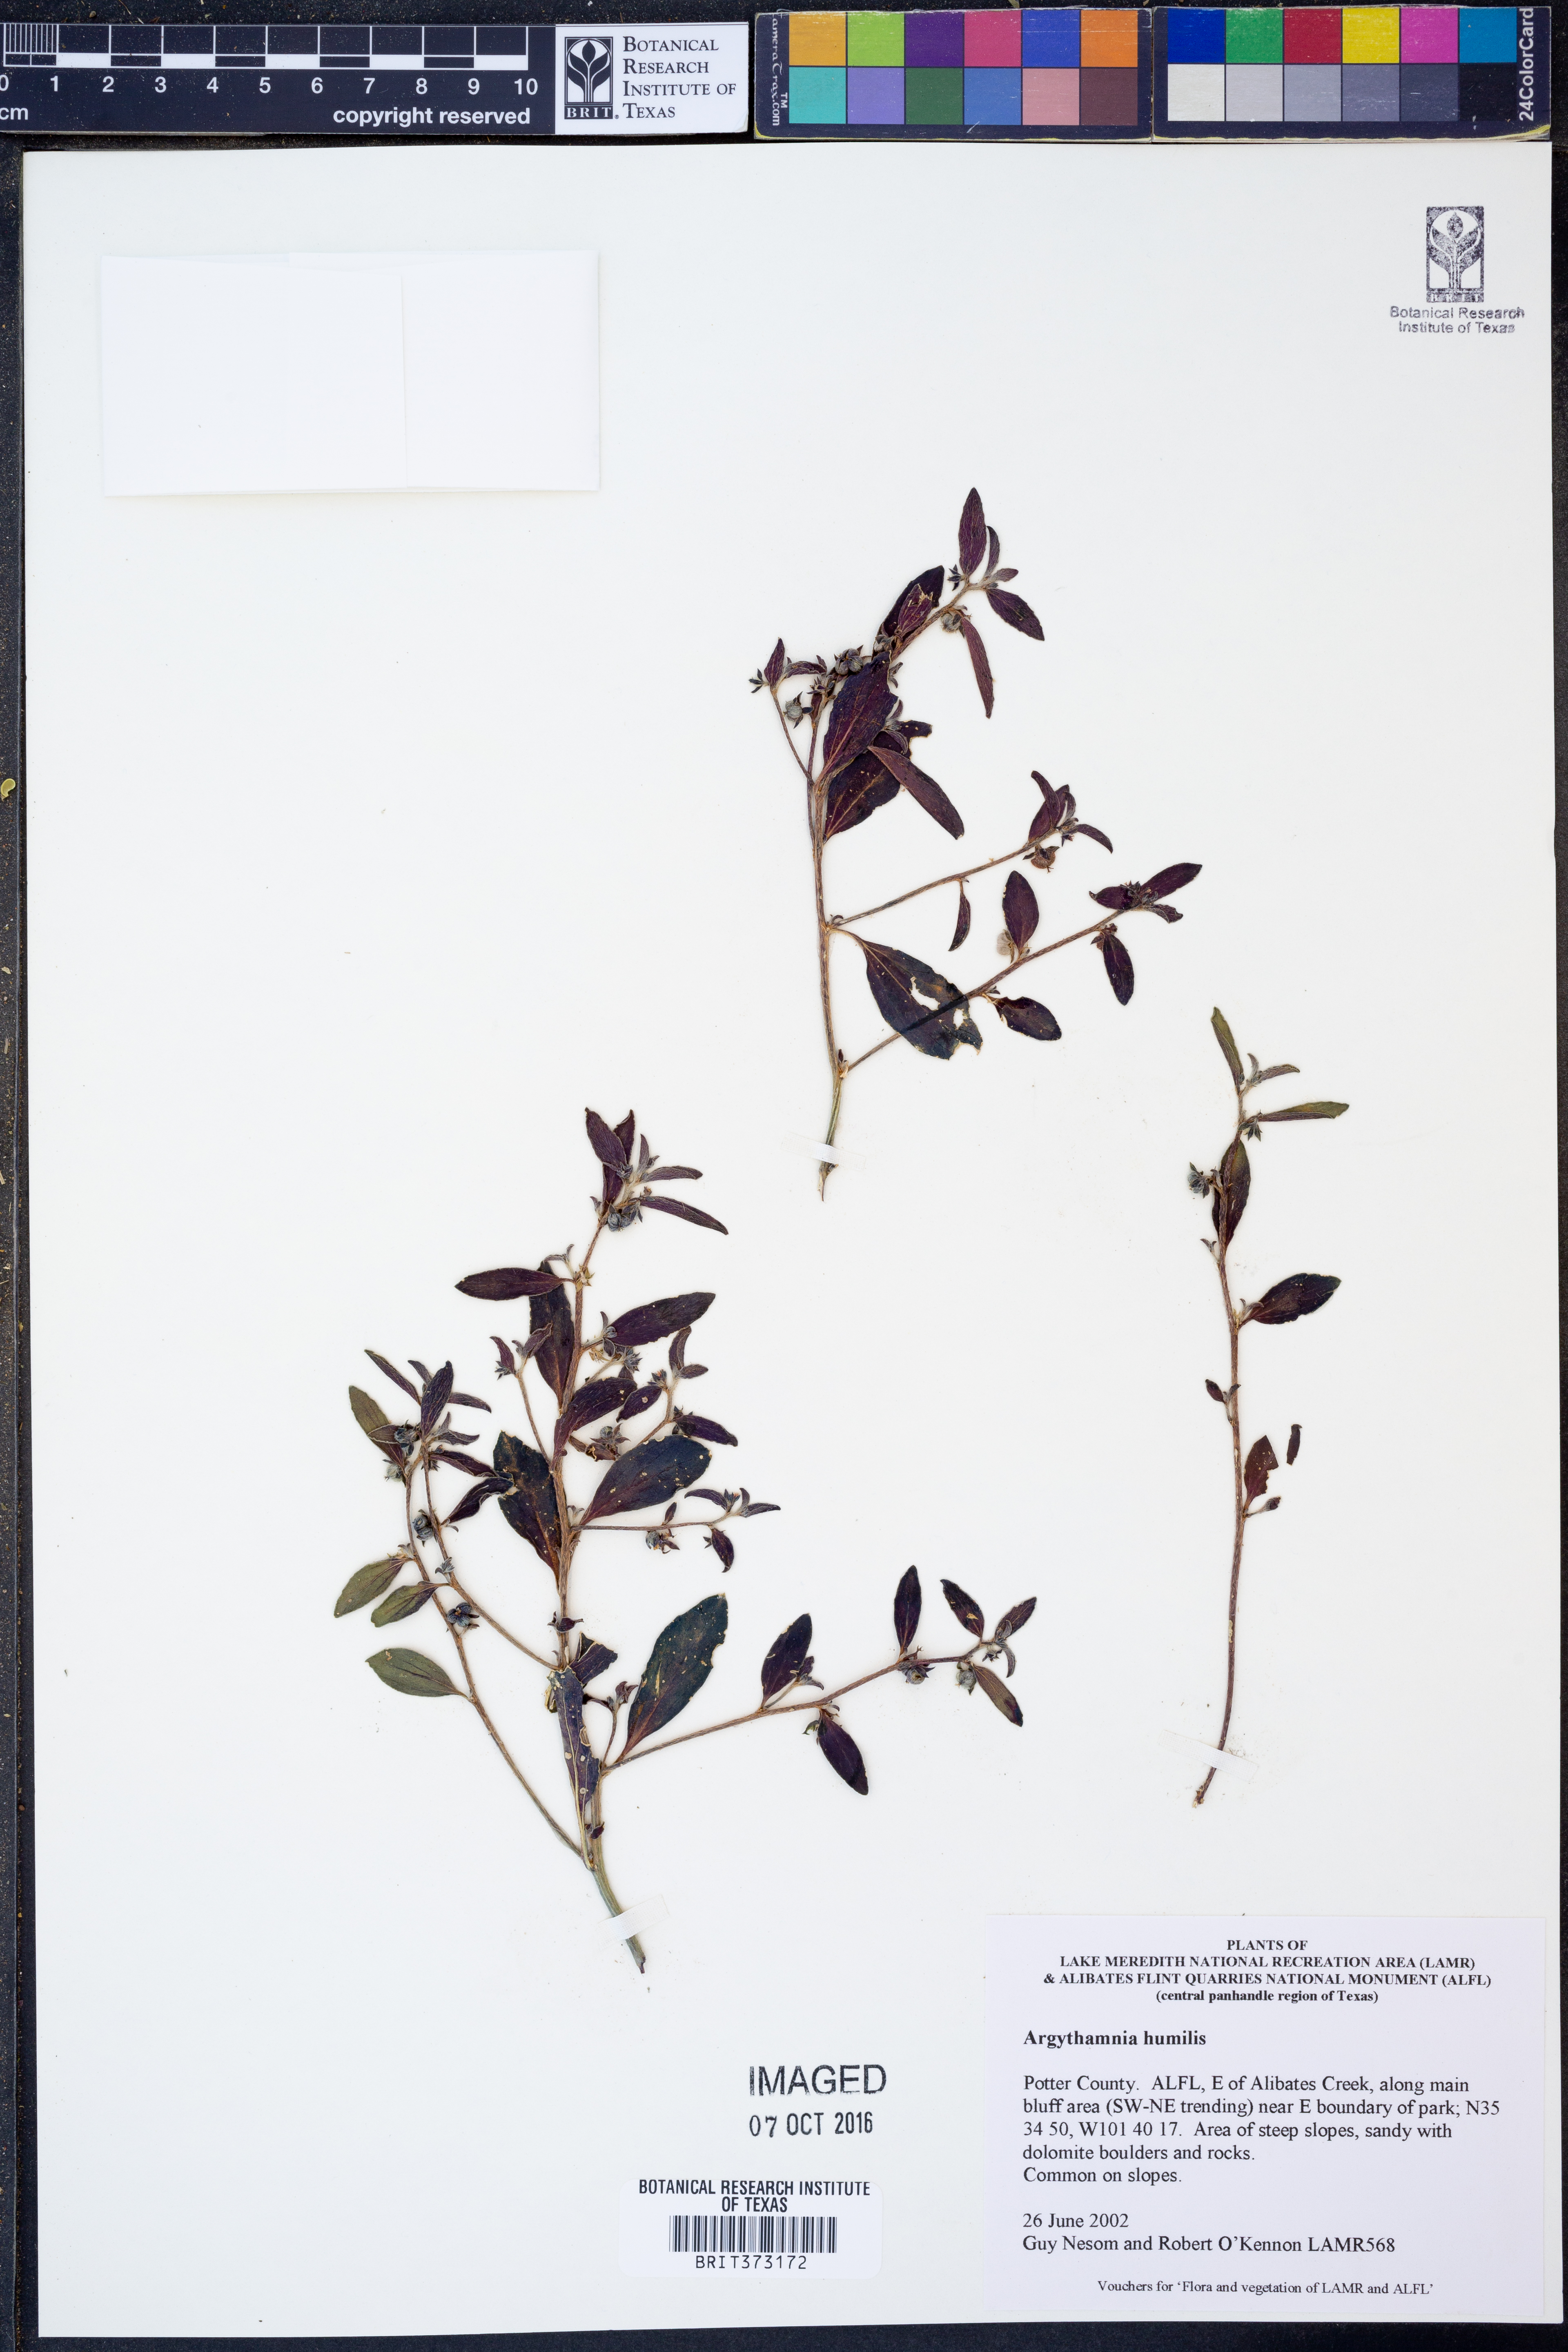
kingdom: Plantae
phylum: Tracheophyta
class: Magnoliopsida
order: Malpighiales
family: Euphorbiaceae
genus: Ditaxis
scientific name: Ditaxis humilis
